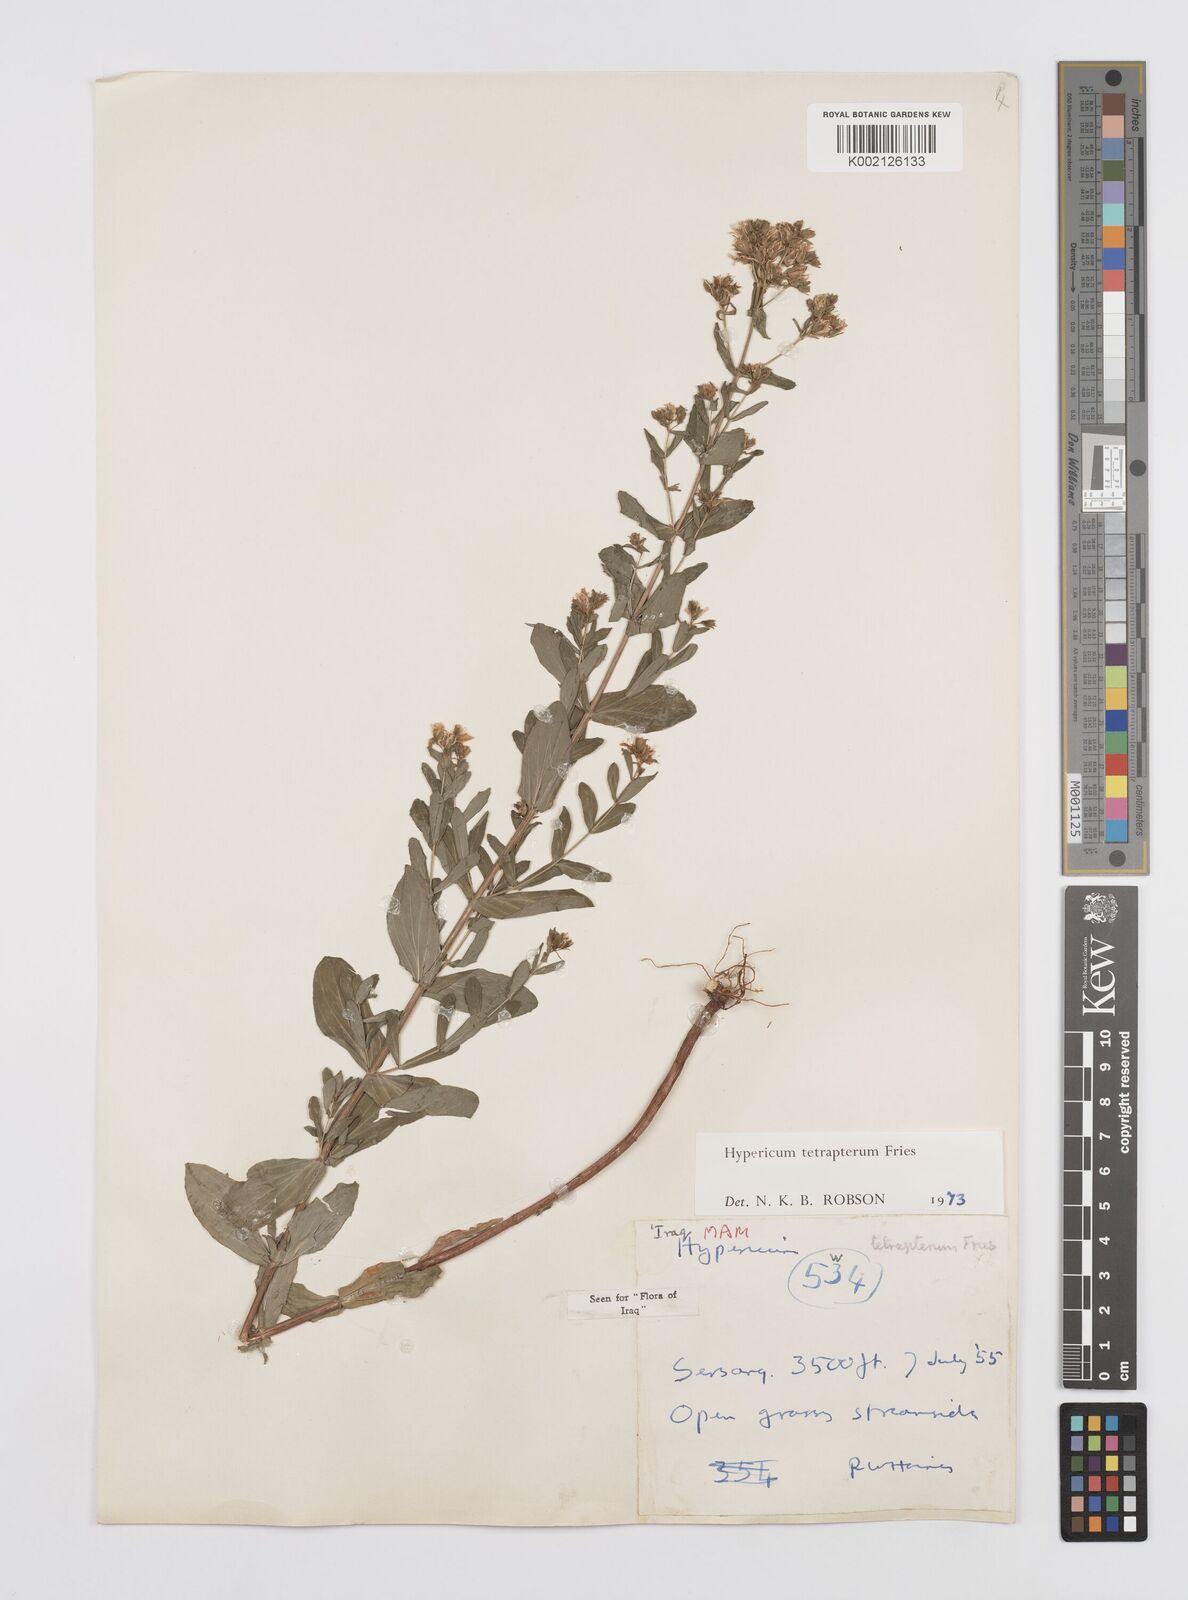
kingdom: Plantae
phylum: Tracheophyta
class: Magnoliopsida
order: Malpighiales
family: Hypericaceae
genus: Hypericum
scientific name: Hypericum tetrapterum
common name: Square-stalked st. john's-wort
